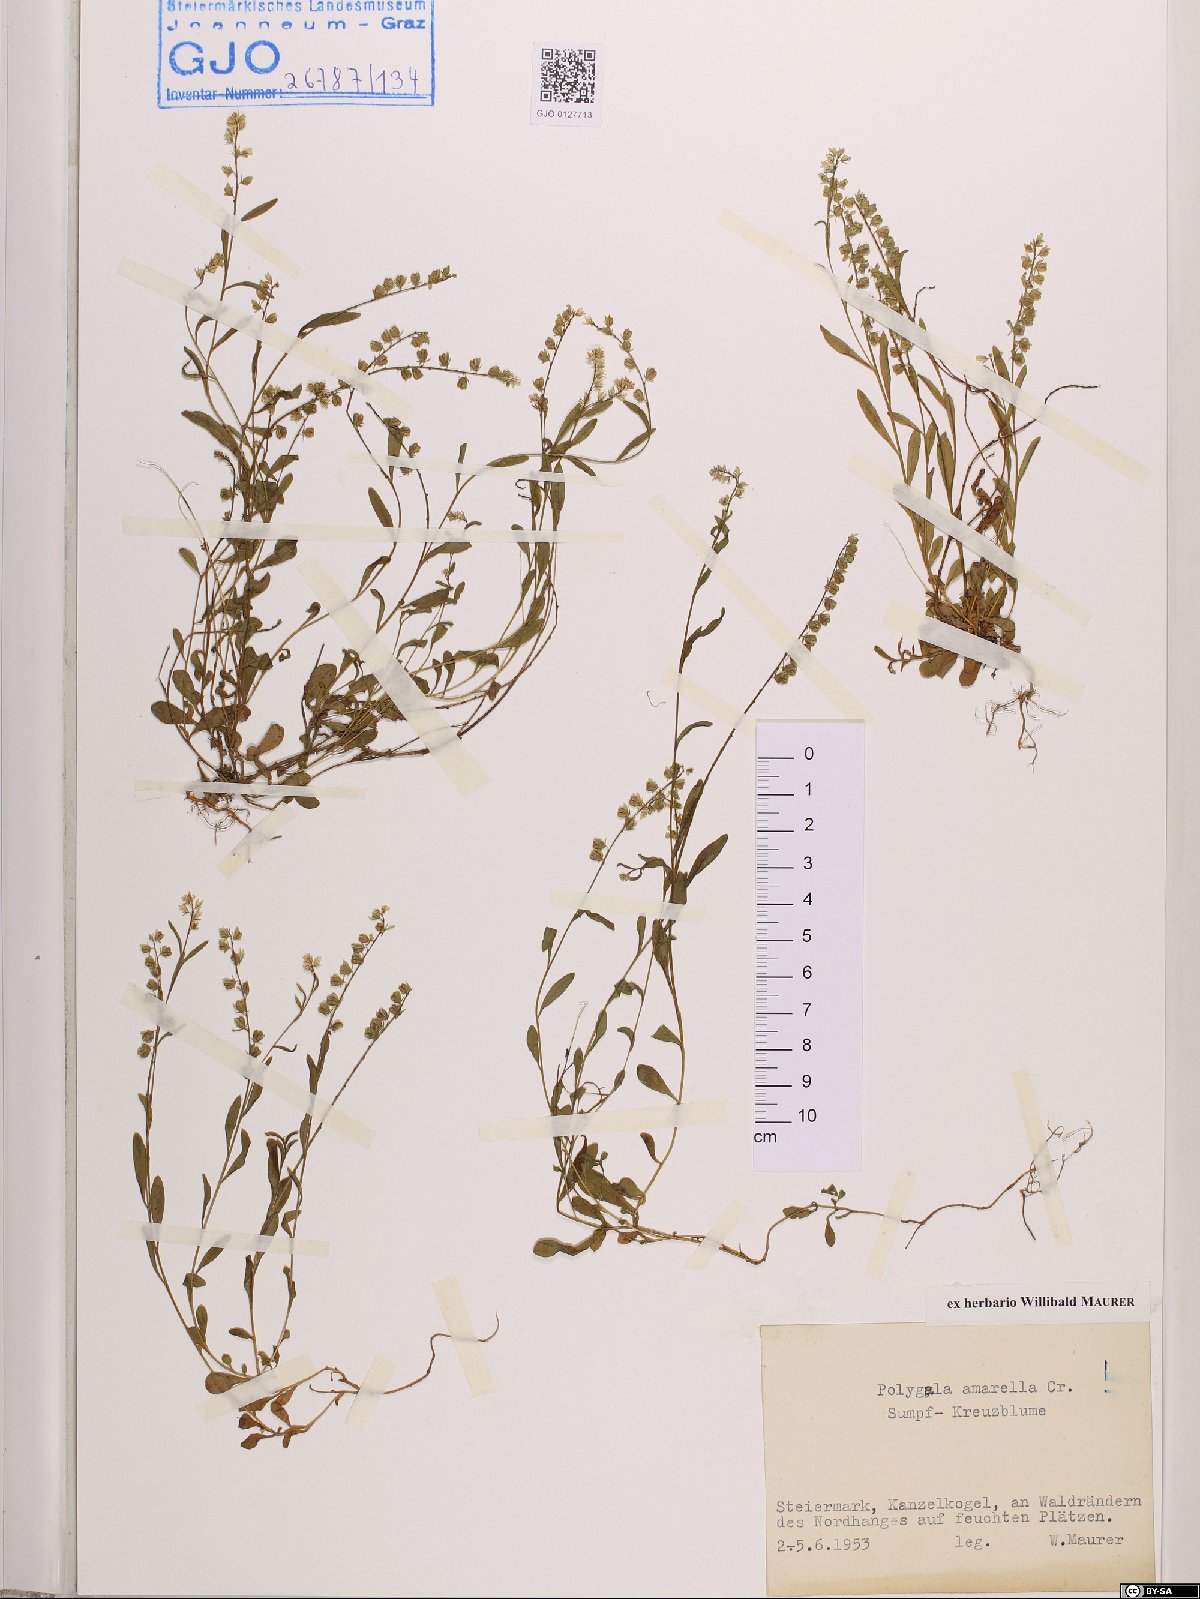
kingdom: Plantae
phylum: Tracheophyta
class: Magnoliopsida
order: Fabales
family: Polygalaceae
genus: Polygala
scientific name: Polygala amarella
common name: Dwarf milkwort
